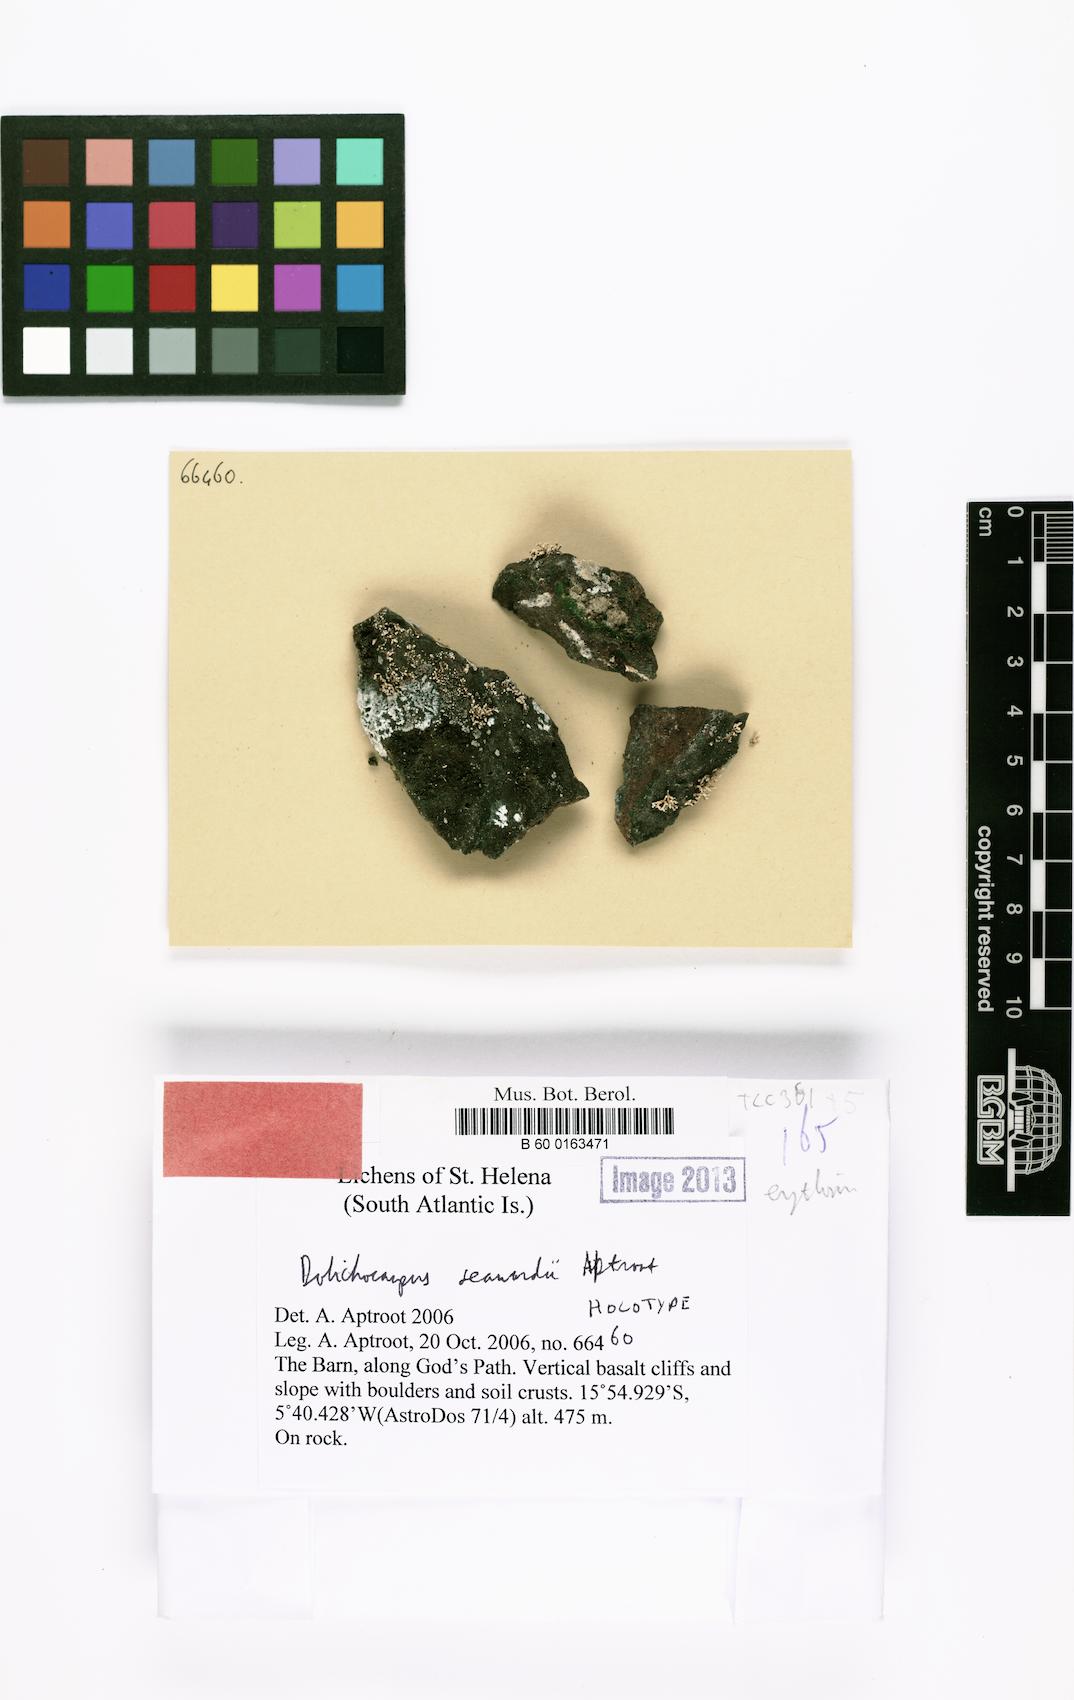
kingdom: Fungi
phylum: Ascomycota
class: Arthoniomycetes
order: Arthoniales
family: Opegraphaceae
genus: Dolichocarpus
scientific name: Dolichocarpus seawardii
